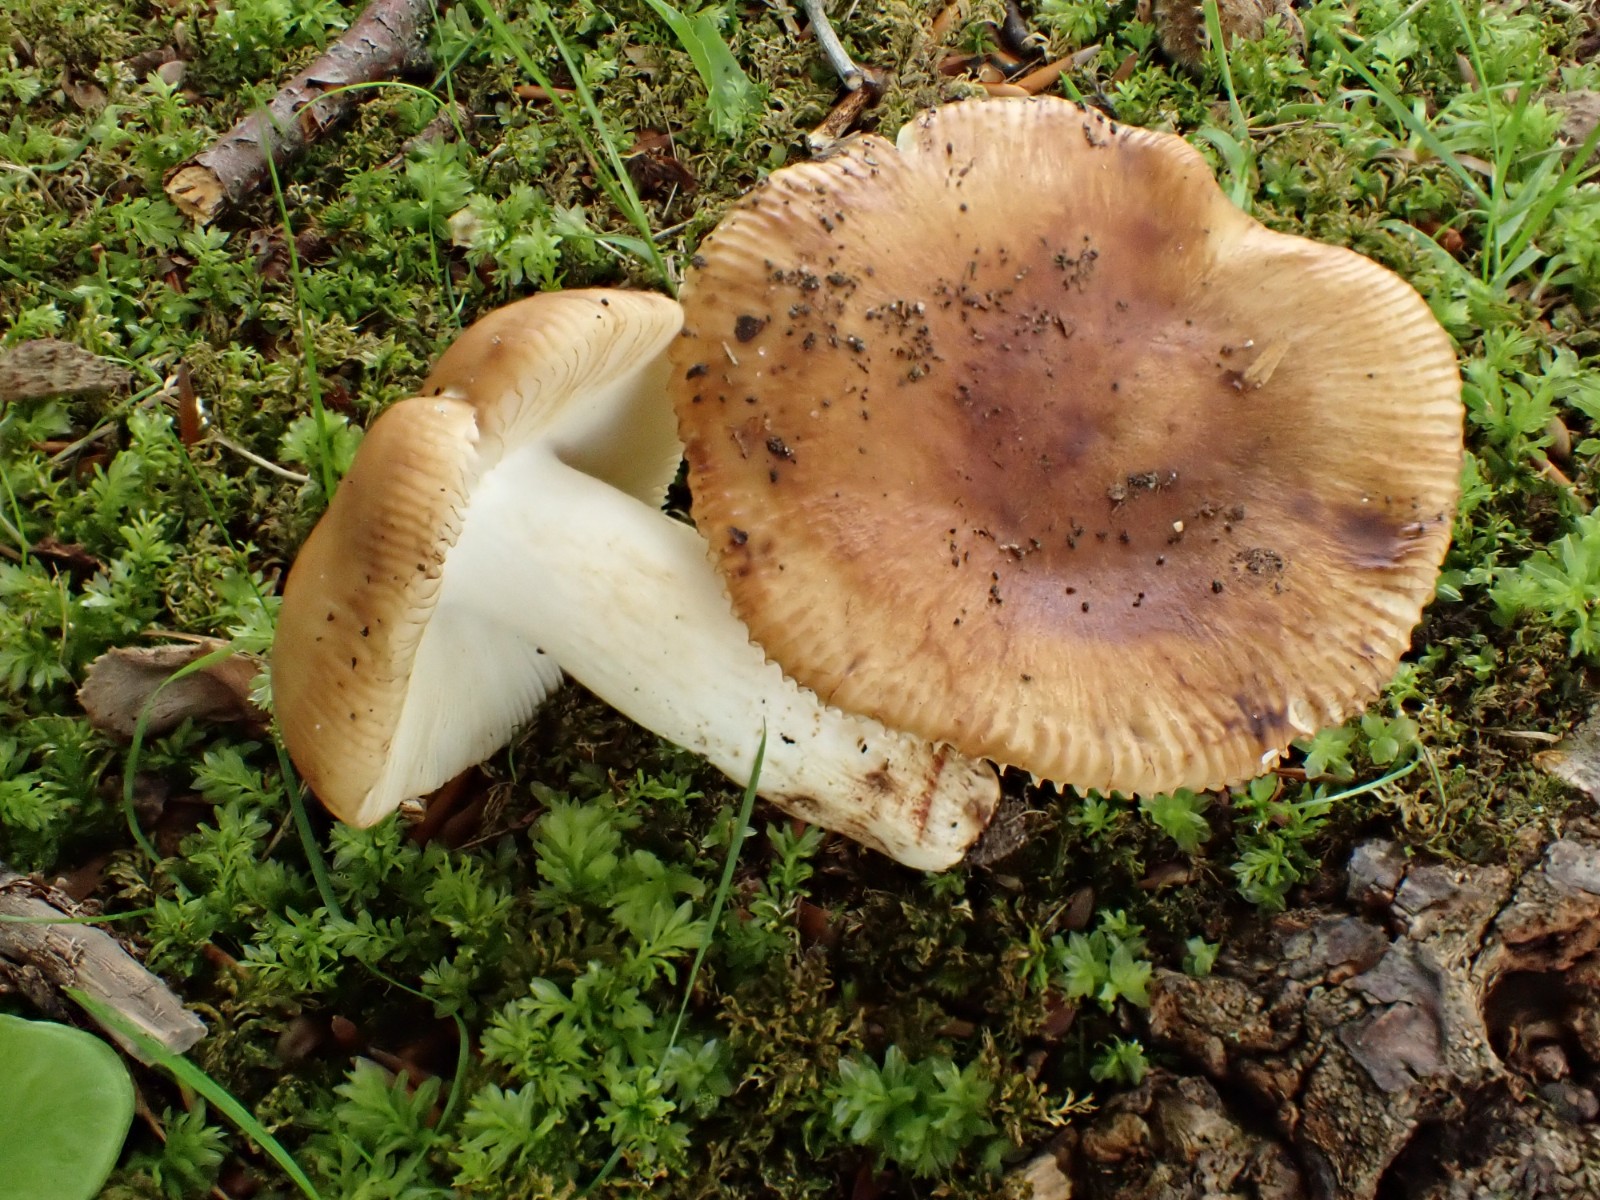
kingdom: Fungi
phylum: Basidiomycota
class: Agaricomycetes
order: Russulales
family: Russulaceae
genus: Russula
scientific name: Russula grata
